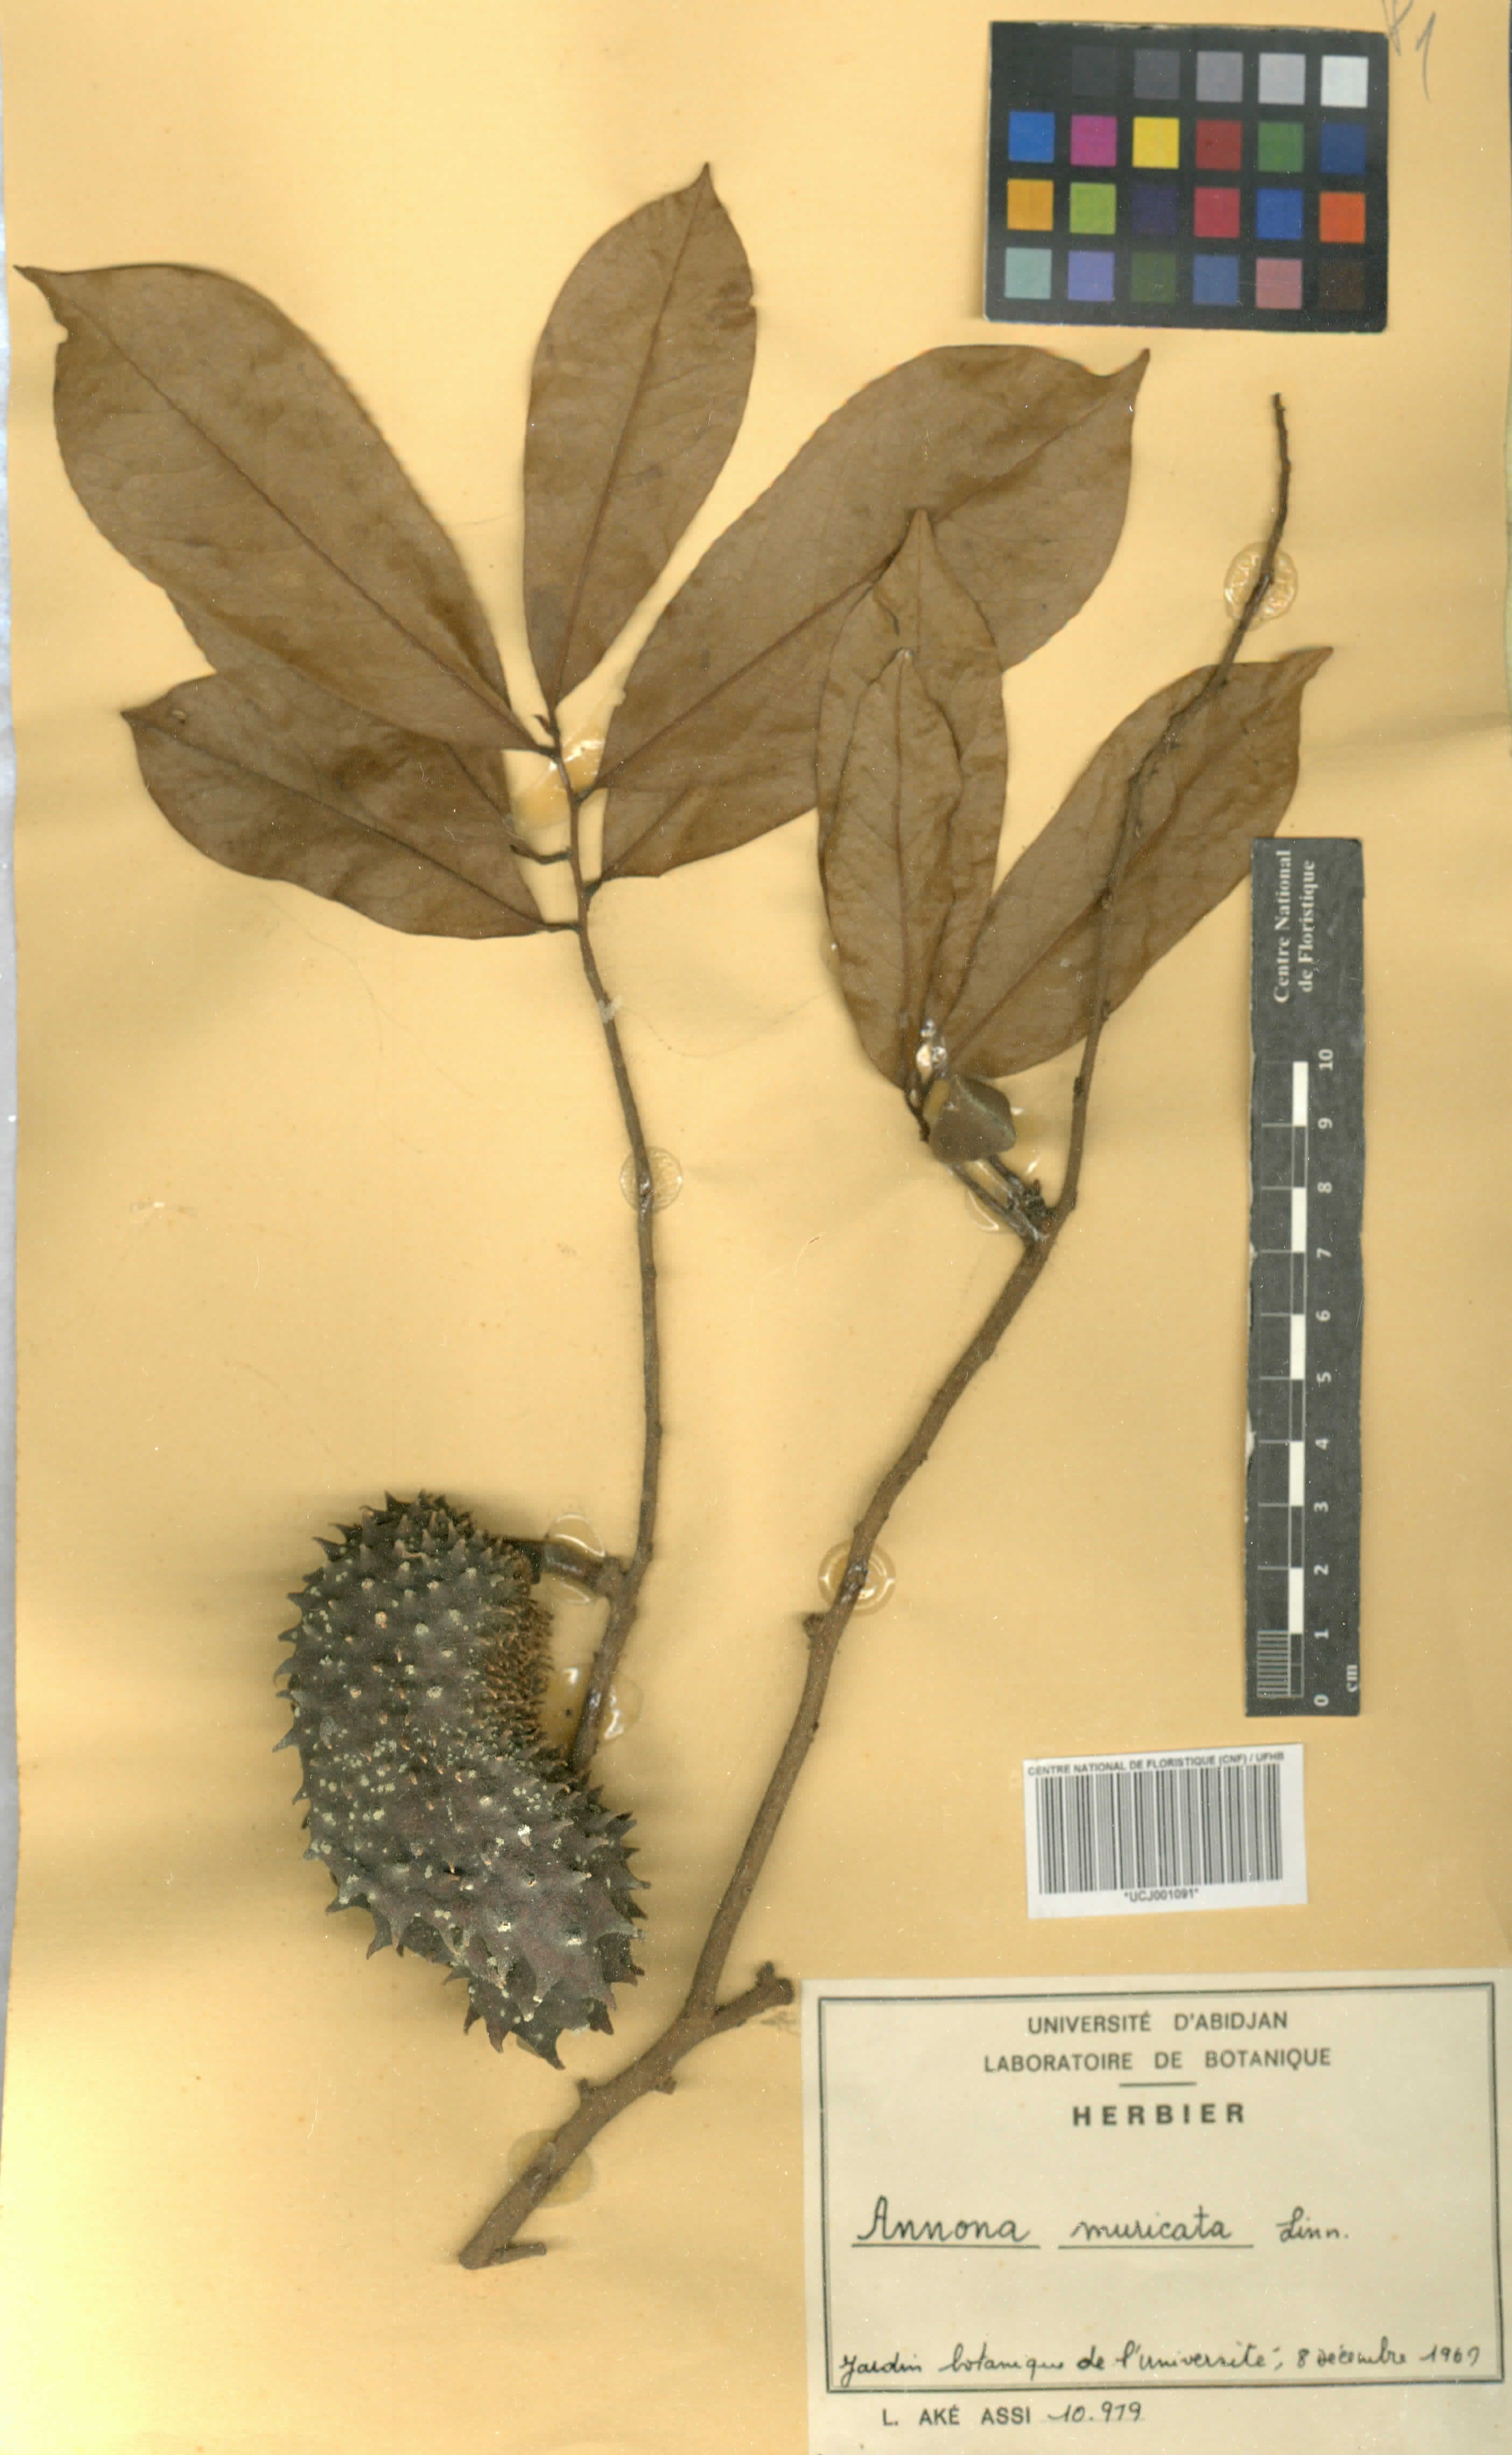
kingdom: Plantae
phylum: Tracheophyta
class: Magnoliopsida
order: Magnoliales
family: Annonaceae
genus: Annona
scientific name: Annona muricata
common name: Soursop
